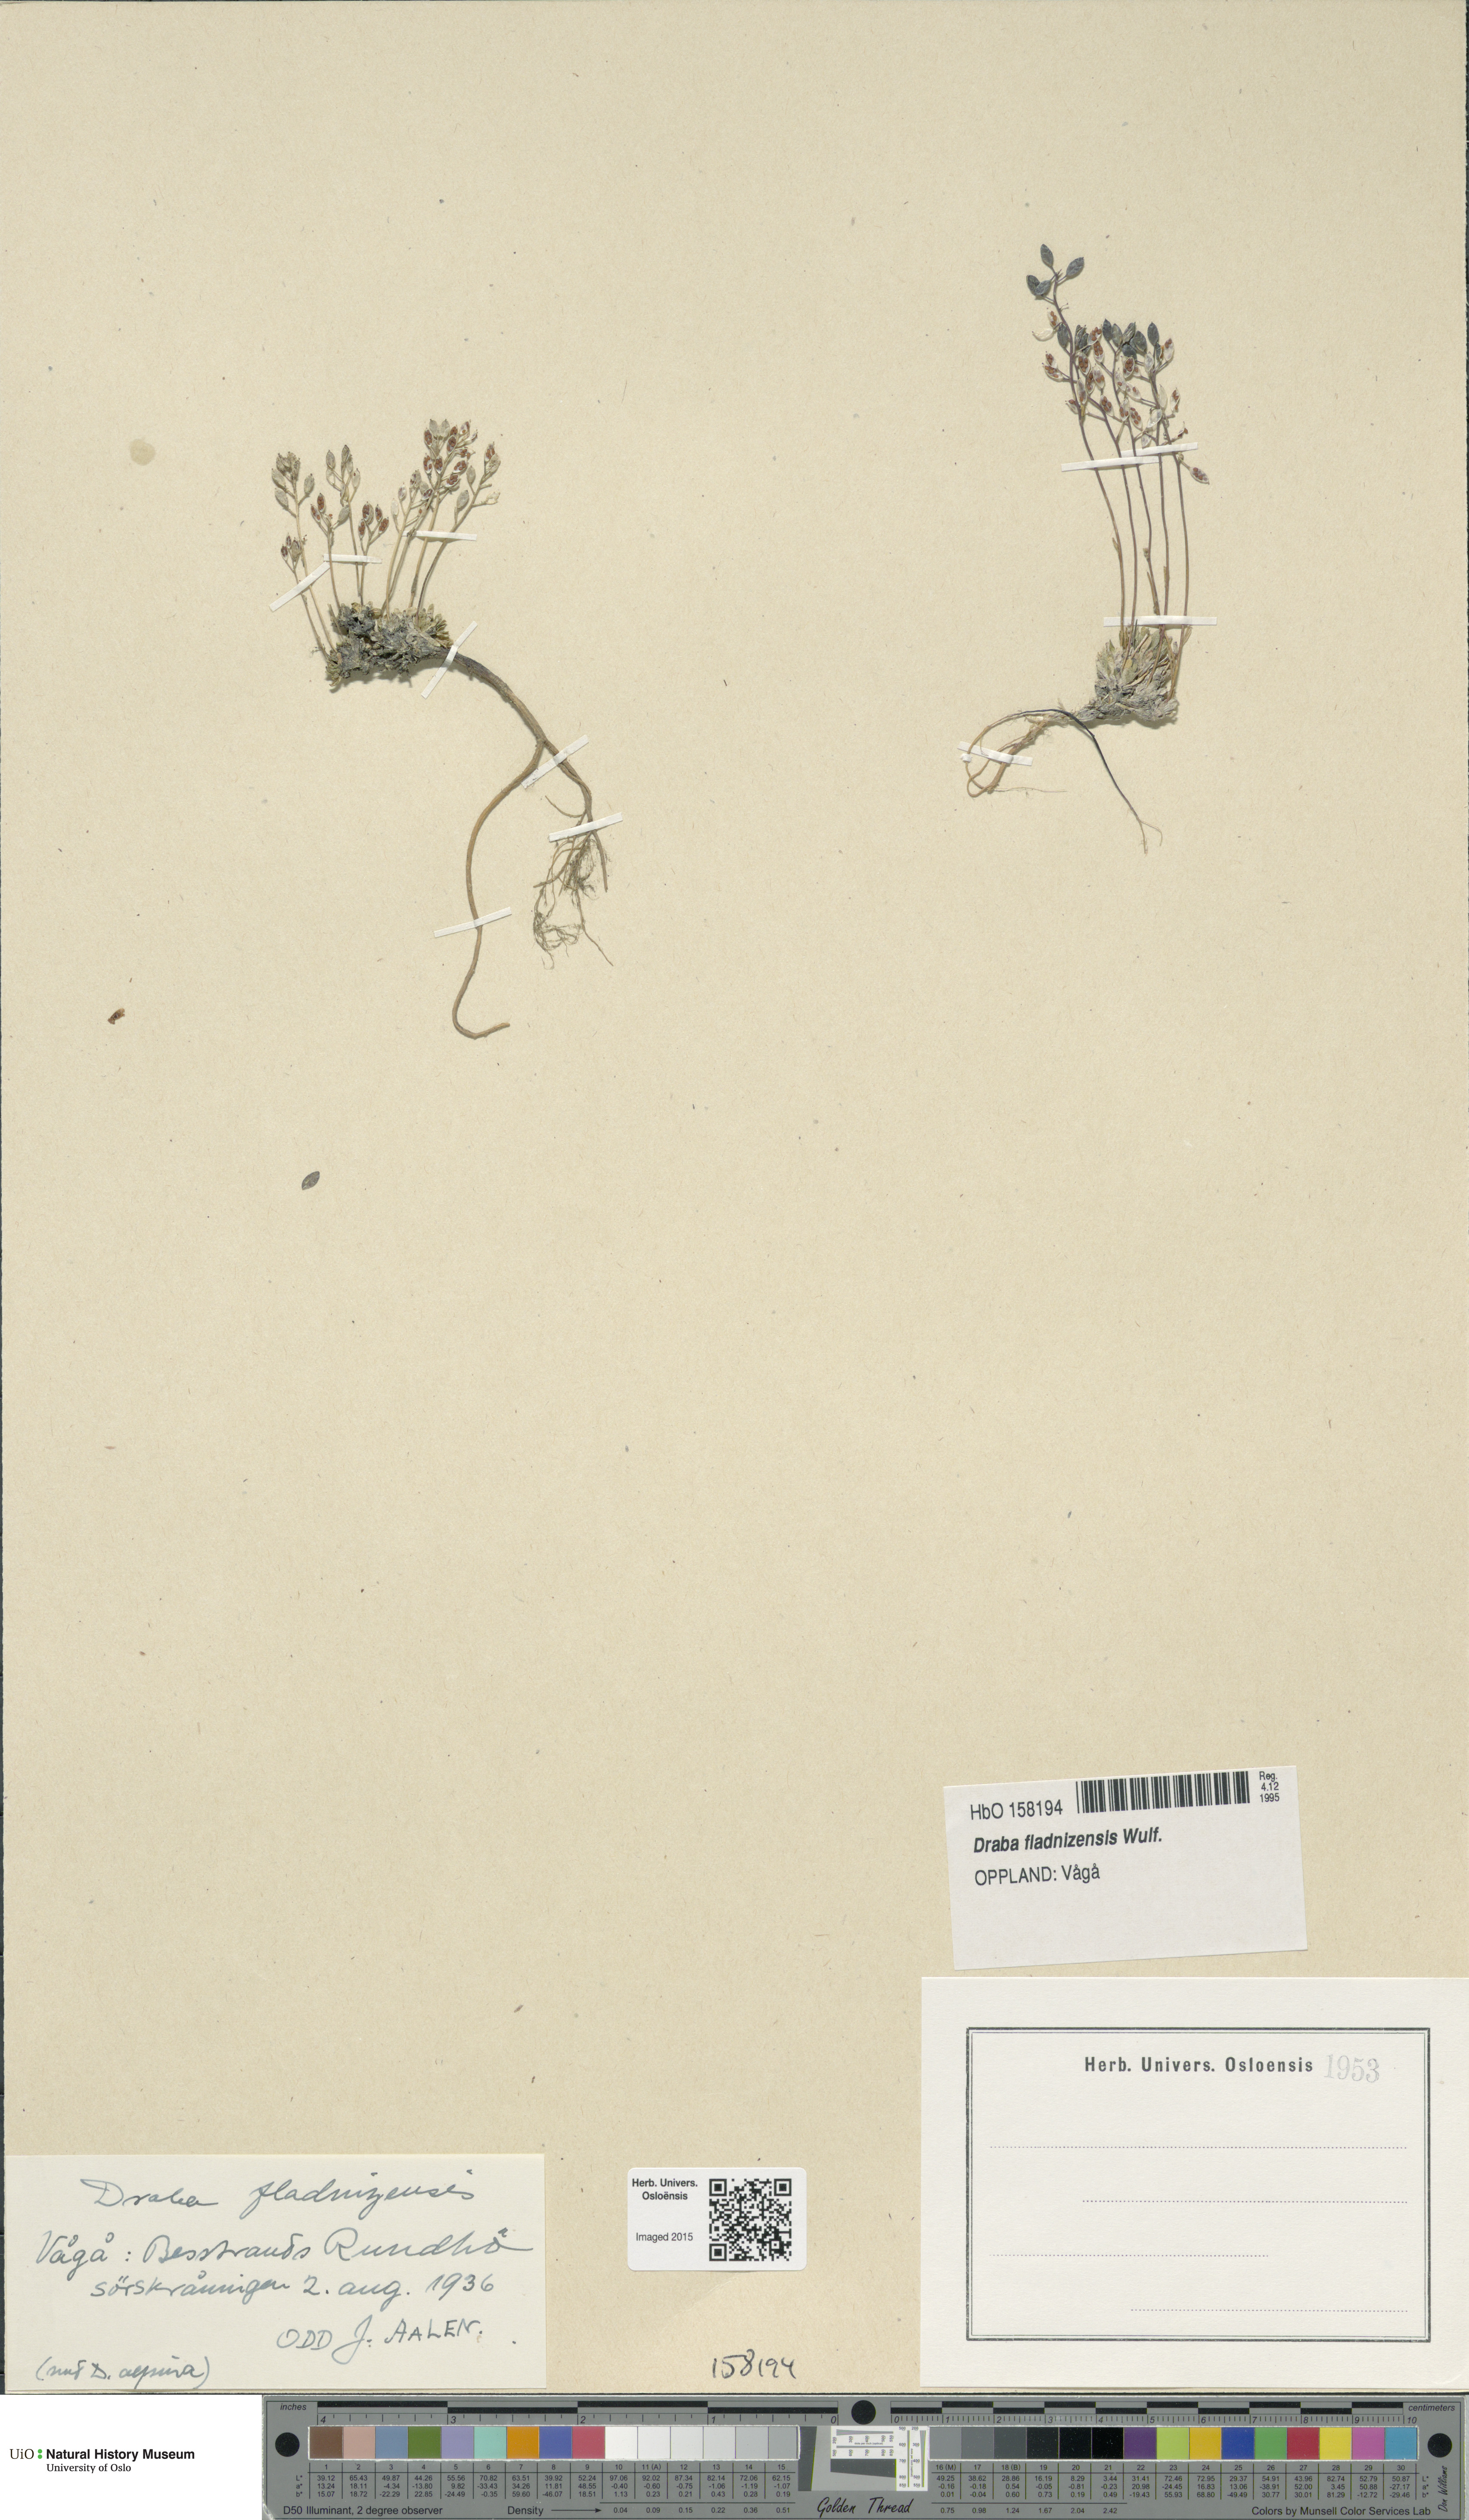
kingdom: Plantae
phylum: Tracheophyta
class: Magnoliopsida
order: Brassicales
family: Brassicaceae
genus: Draba
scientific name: Draba fladnizensis
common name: Austrian draba
